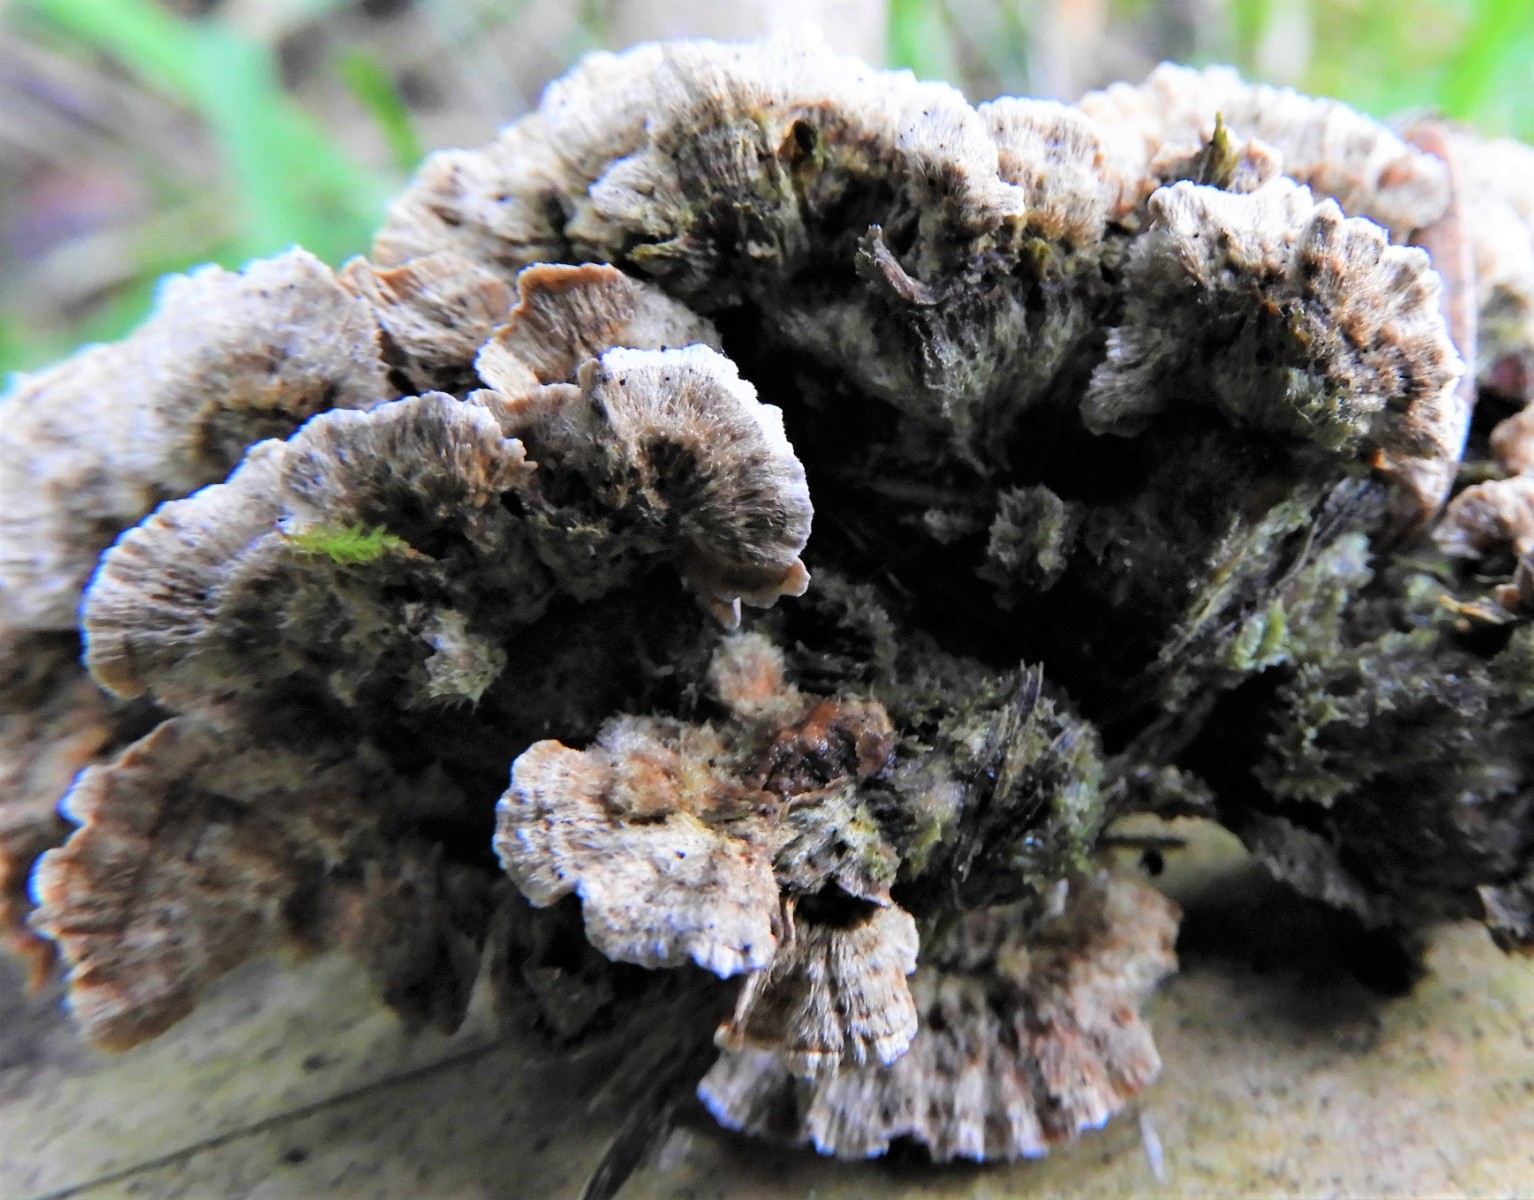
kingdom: Fungi
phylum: Basidiomycota
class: Agaricomycetes
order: Russulales
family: Stereaceae
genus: Stereum
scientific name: Stereum sanguinolentum
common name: blødende lædersvamp
